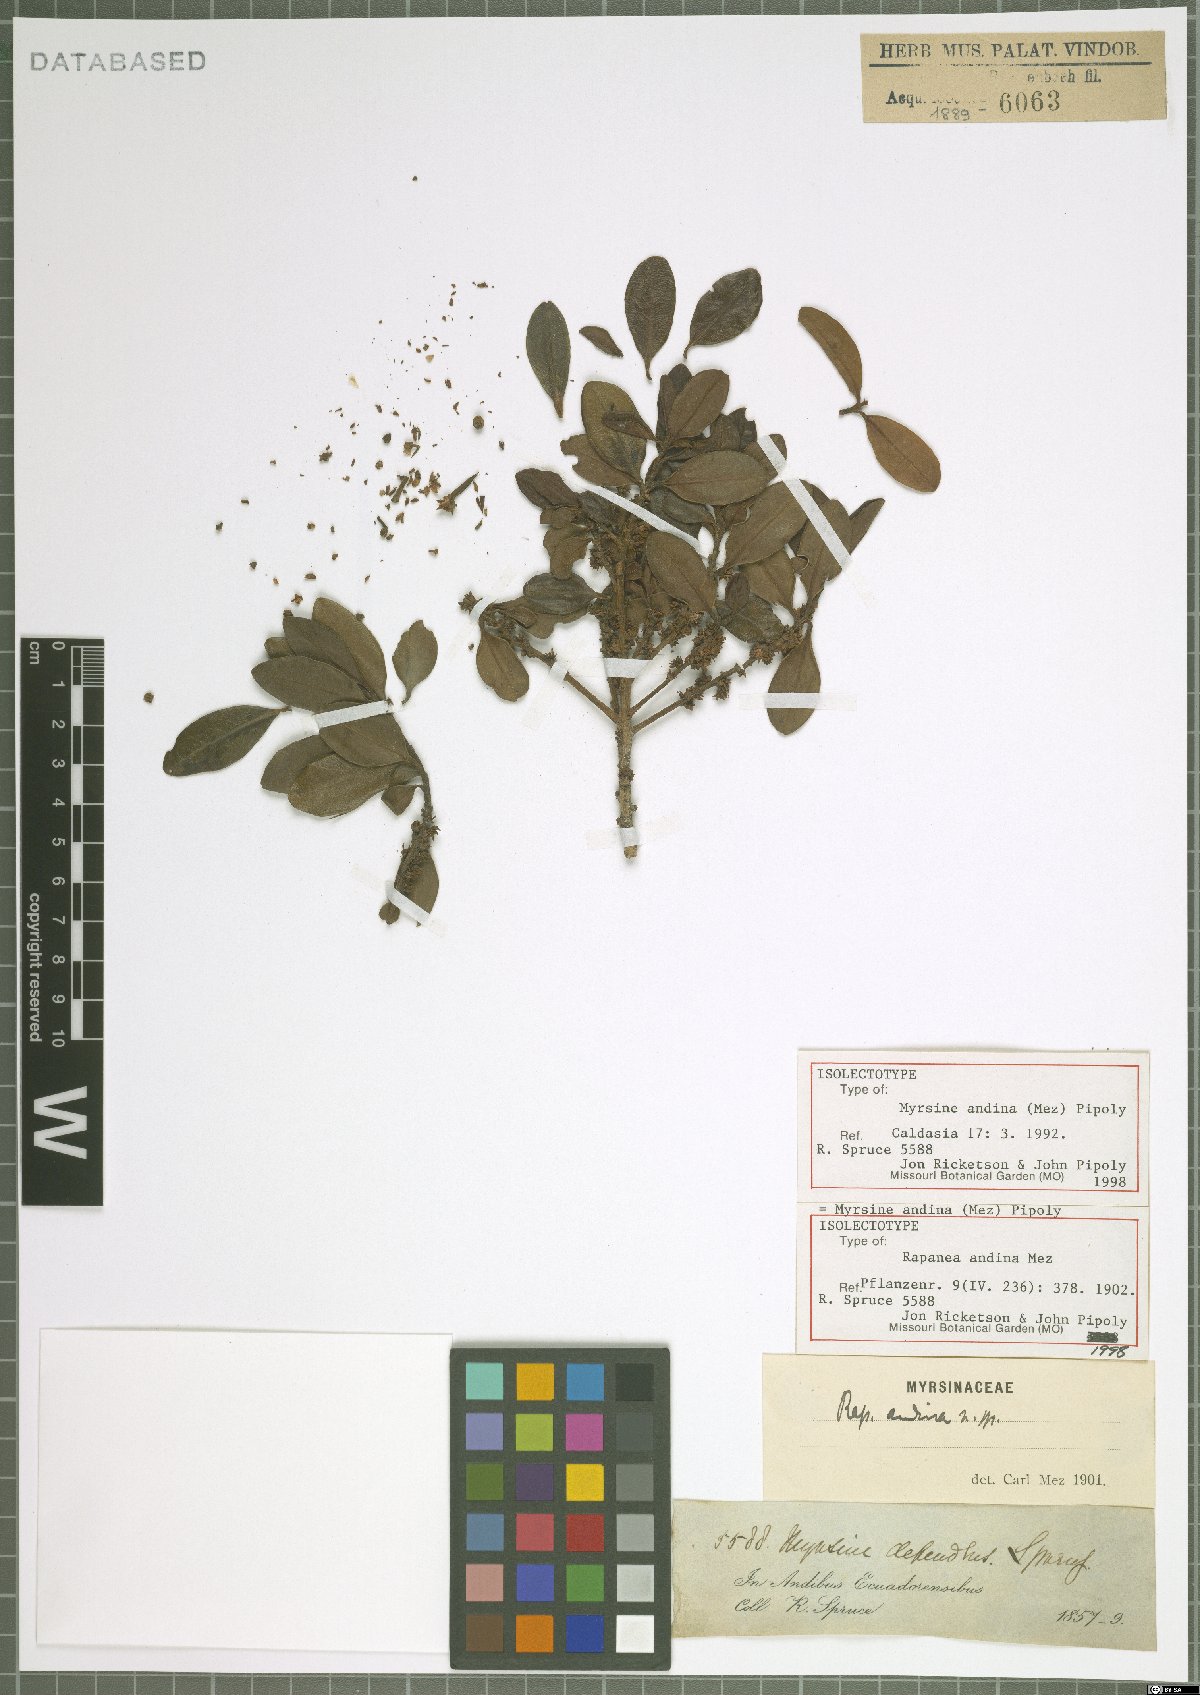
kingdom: Plantae
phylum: Tracheophyta
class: Magnoliopsida
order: Ericales
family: Primulaceae
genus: Myrsine
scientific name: Myrsine andina
